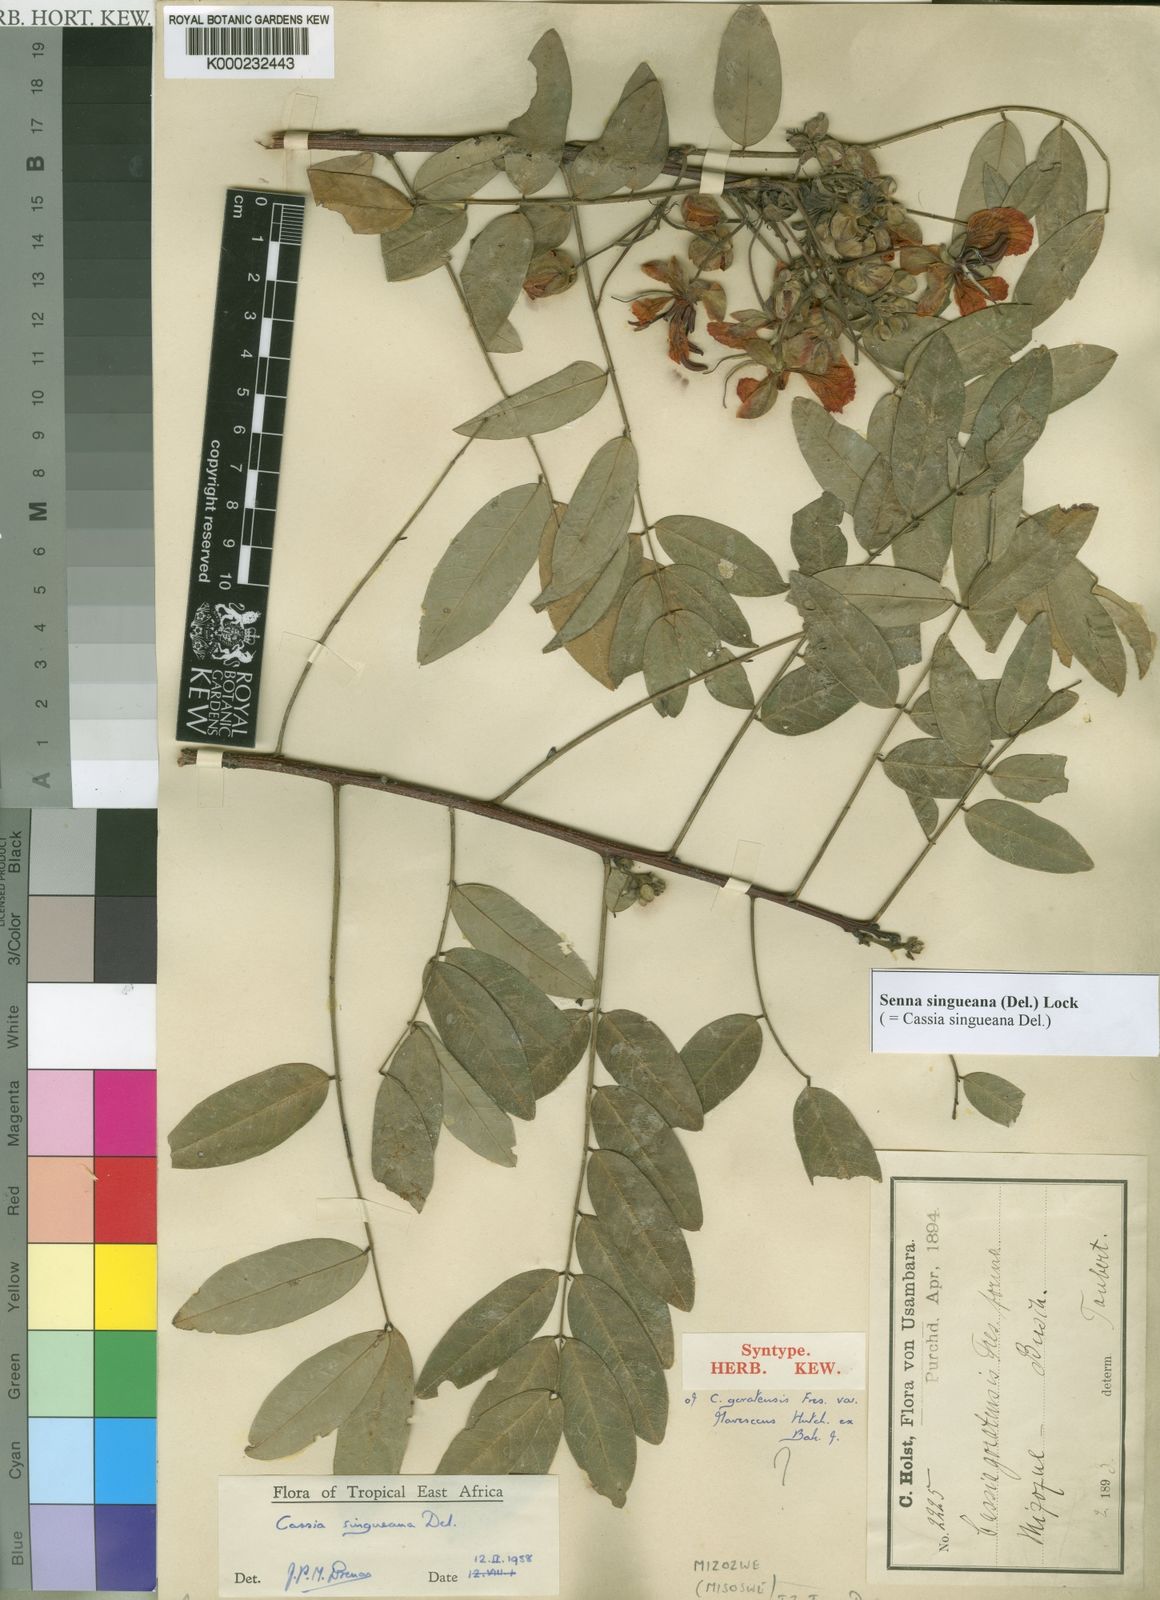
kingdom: Plantae
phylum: Tracheophyta
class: Magnoliopsida
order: Fabales
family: Fabaceae
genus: Senna
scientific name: Senna singueana
